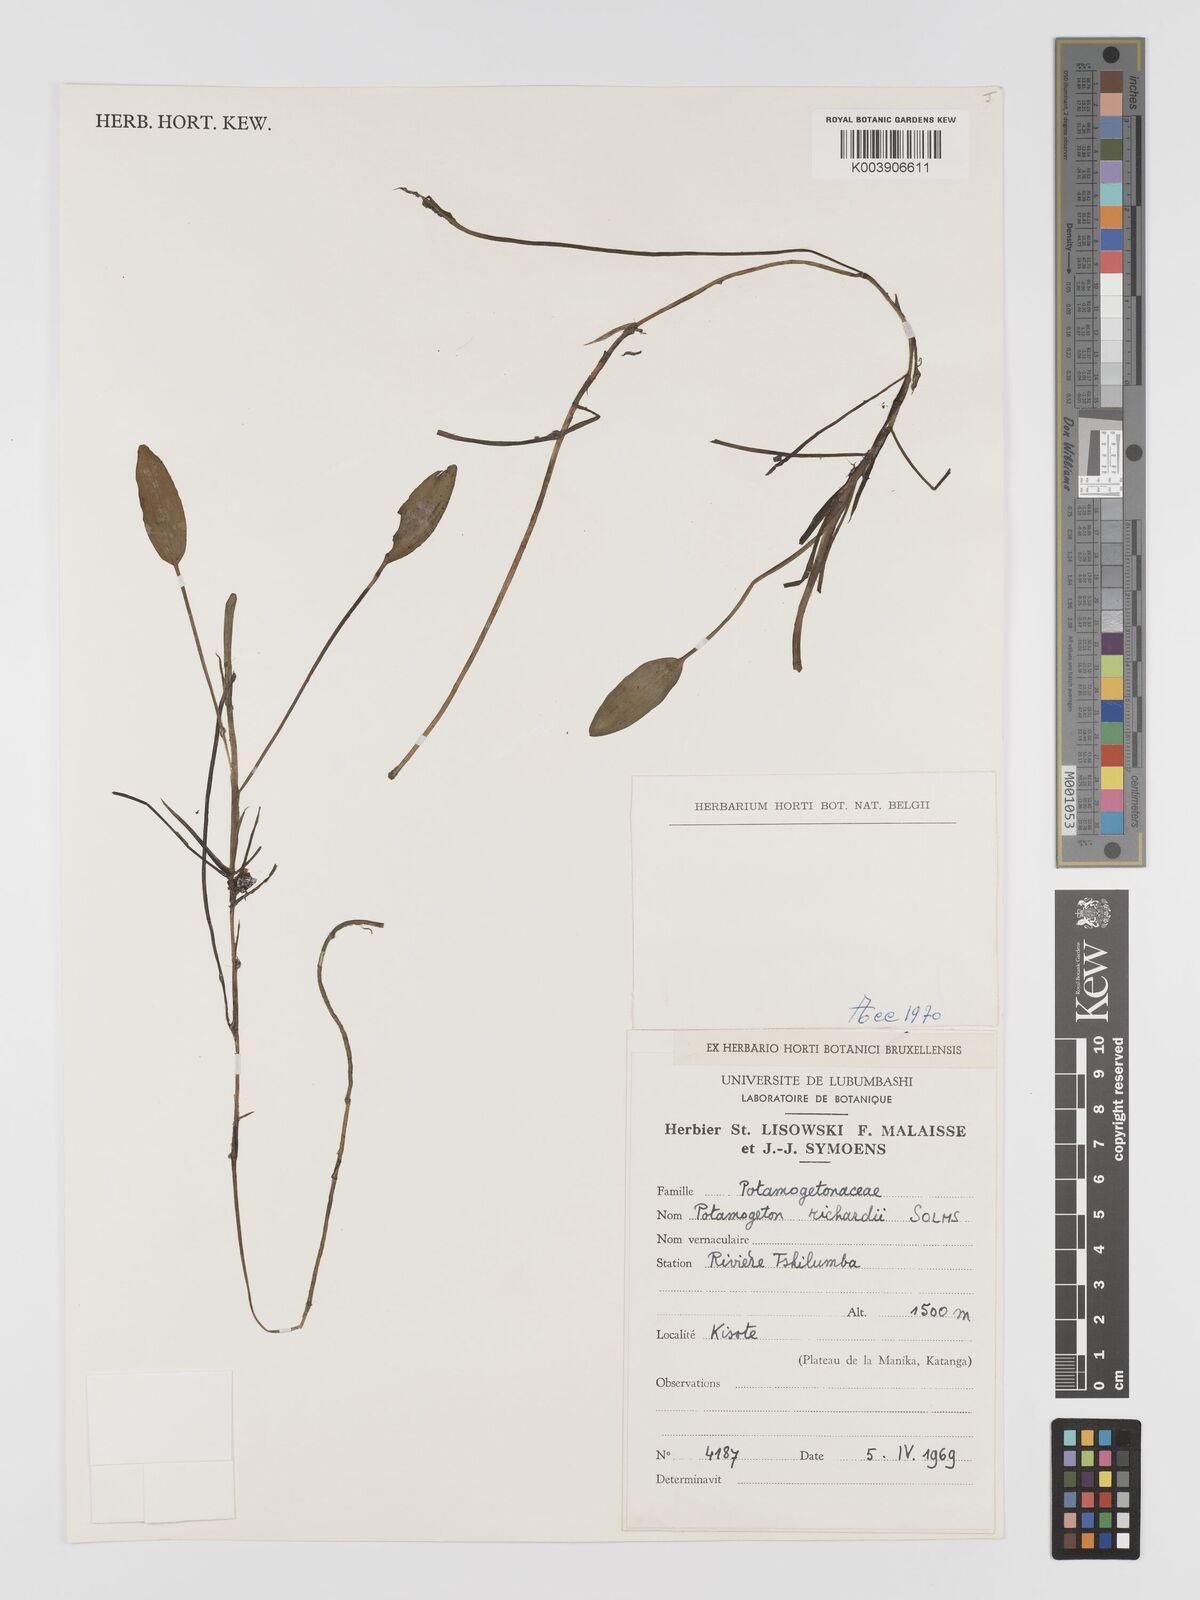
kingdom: Plantae
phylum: Tracheophyta
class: Liliopsida
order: Alismatales
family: Potamogetonaceae
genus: Potamogeton
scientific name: Potamogeton nodosus
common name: Loddon pondweed
